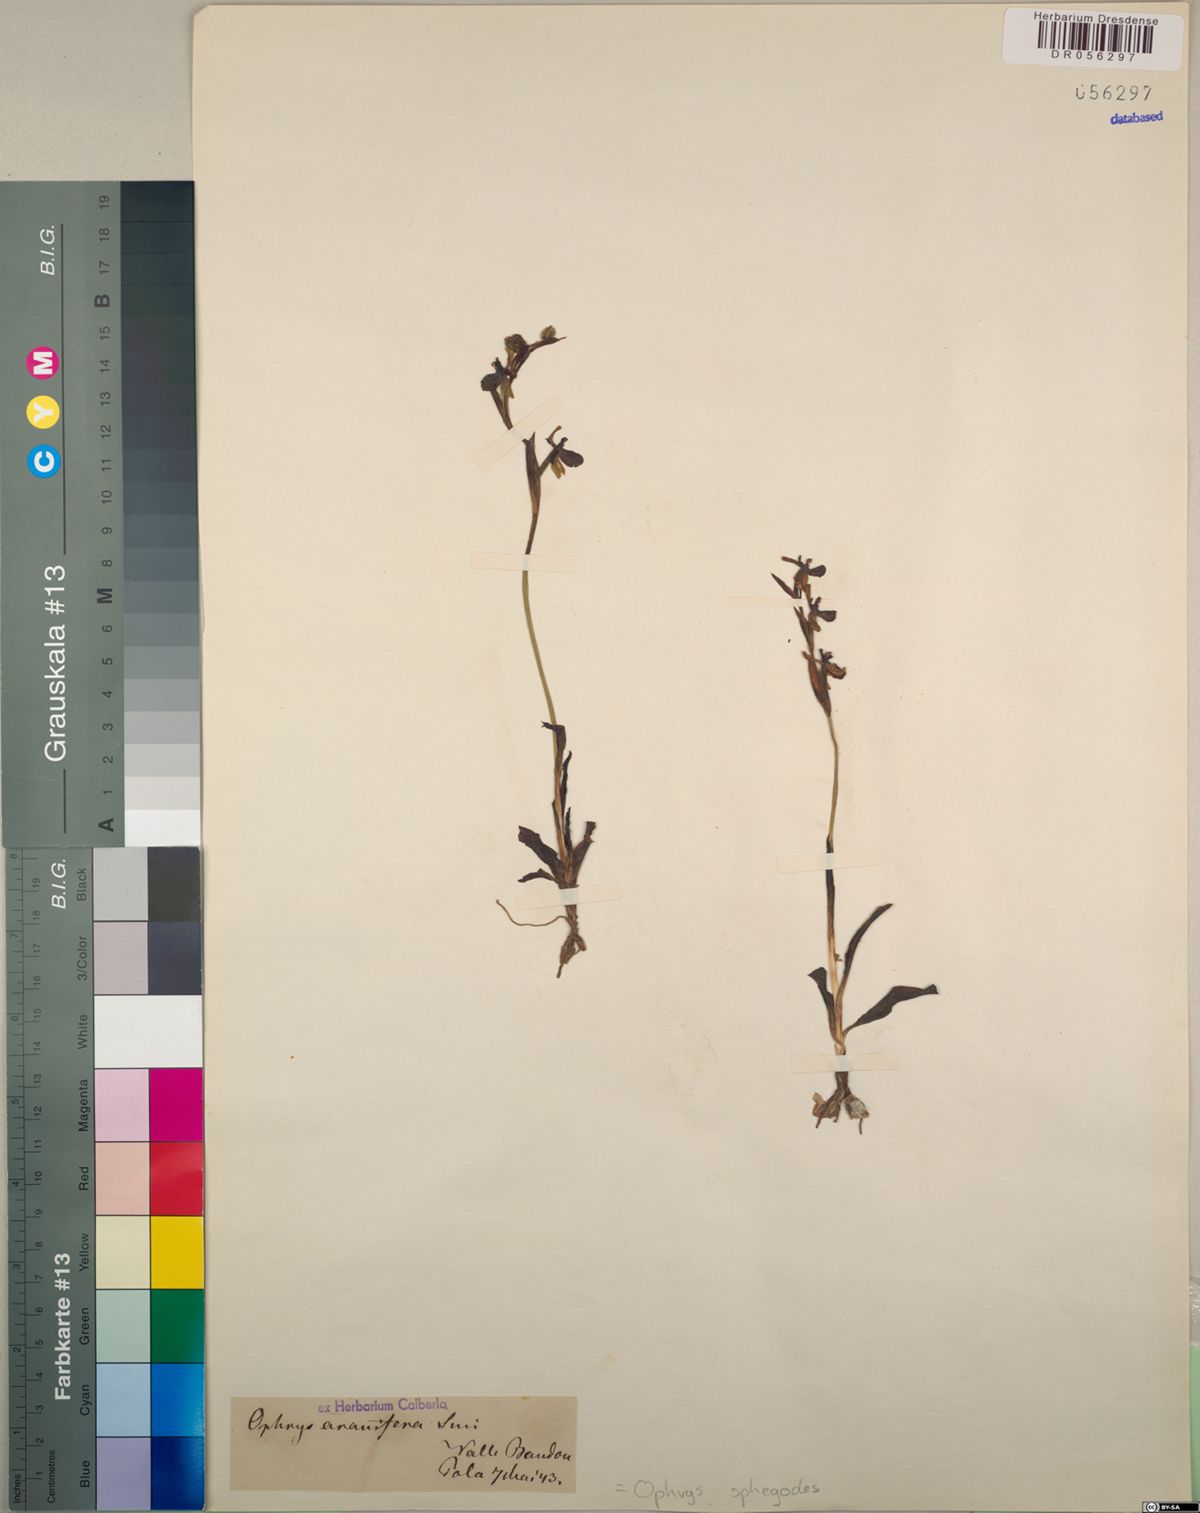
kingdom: Plantae
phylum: Tracheophyta
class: Liliopsida
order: Asparagales
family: Orchidaceae
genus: Ophrys
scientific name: Ophrys sphegodes
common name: Early spider-orchid
